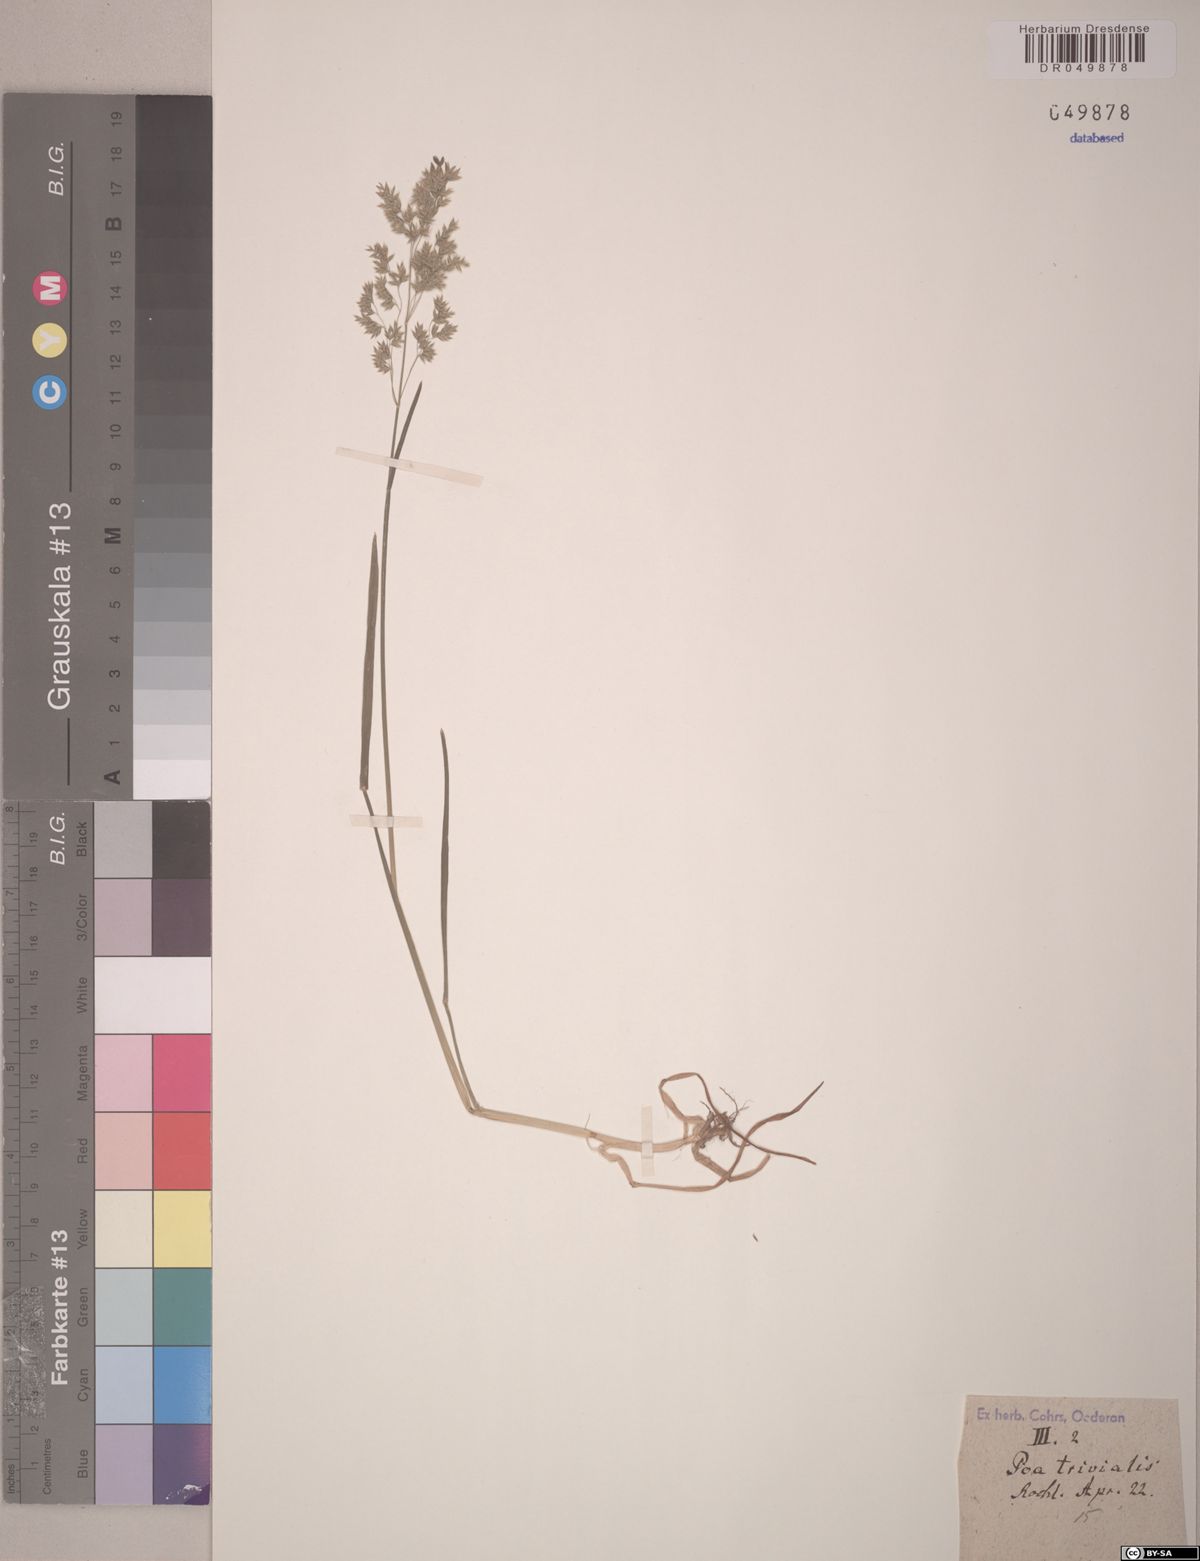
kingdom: Plantae
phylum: Tracheophyta
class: Liliopsida
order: Poales
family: Poaceae
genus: Poa
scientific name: Poa trivialis
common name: Rough bluegrass
